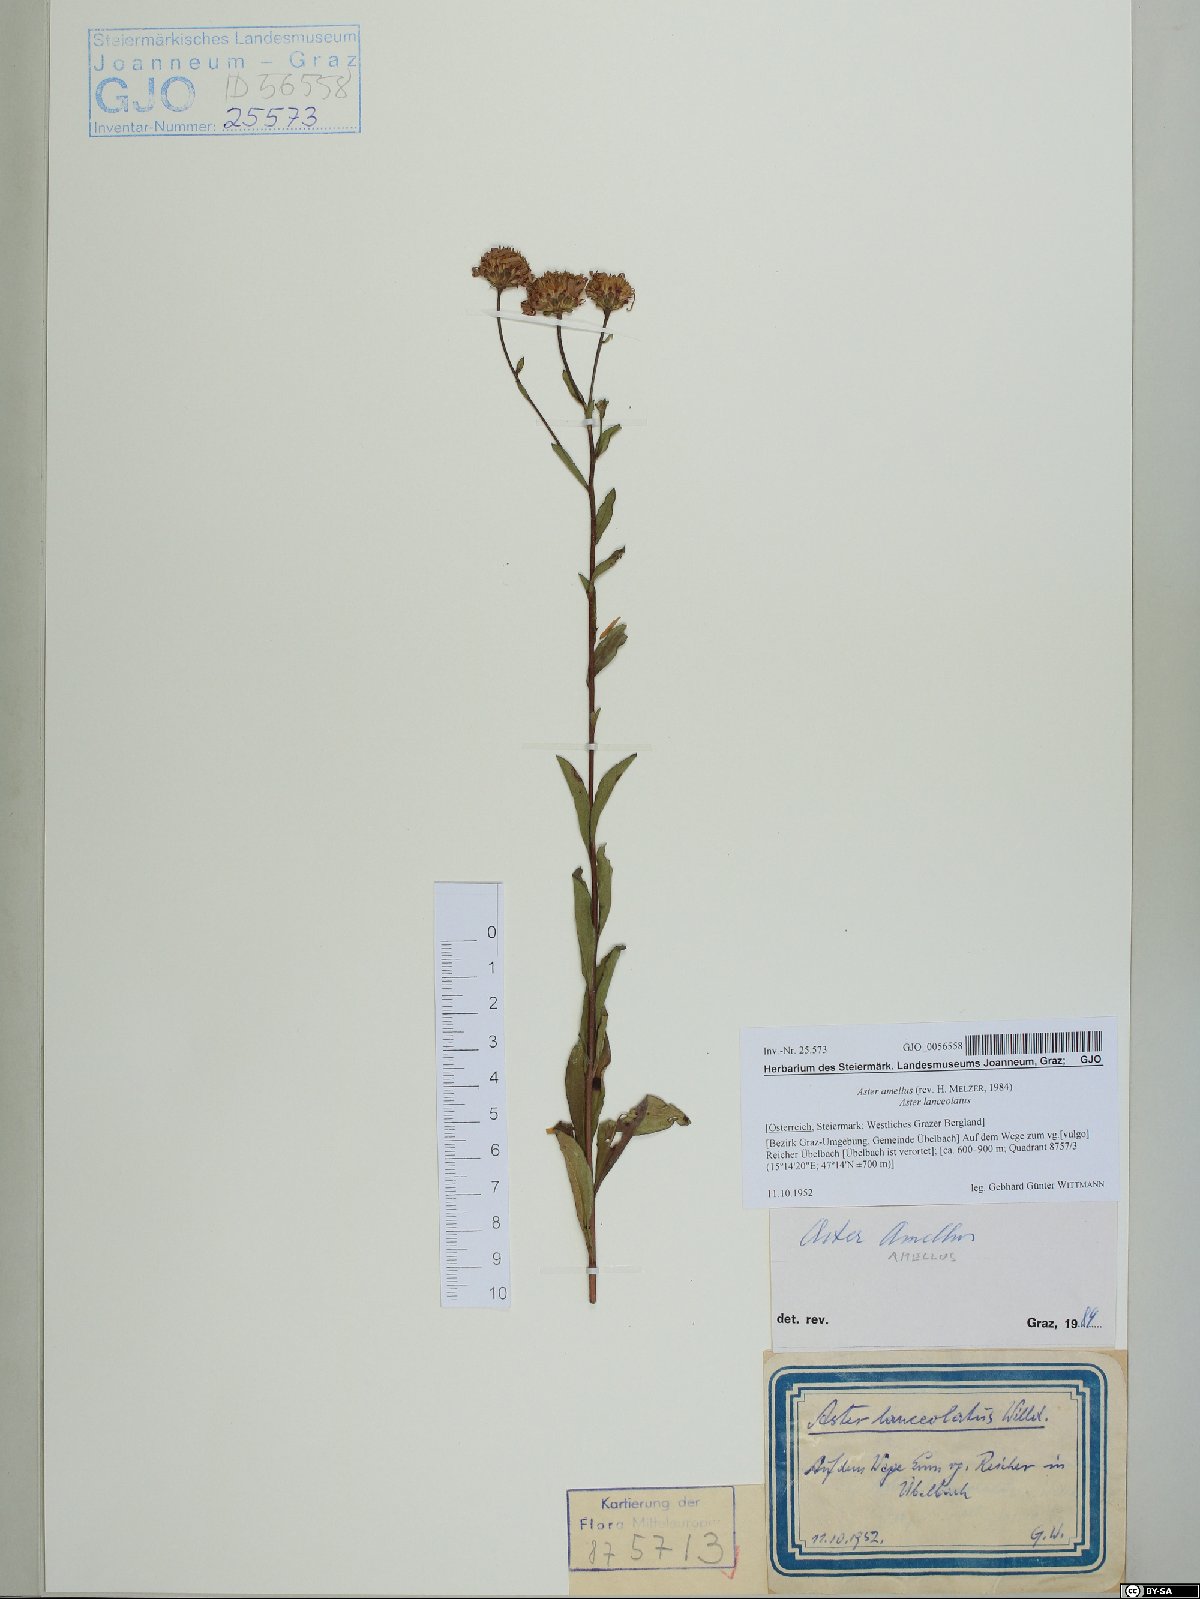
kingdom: Plantae
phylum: Tracheophyta
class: Magnoliopsida
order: Asterales
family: Asteraceae
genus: Aster
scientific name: Aster amellus
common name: European michaelmas daisy
